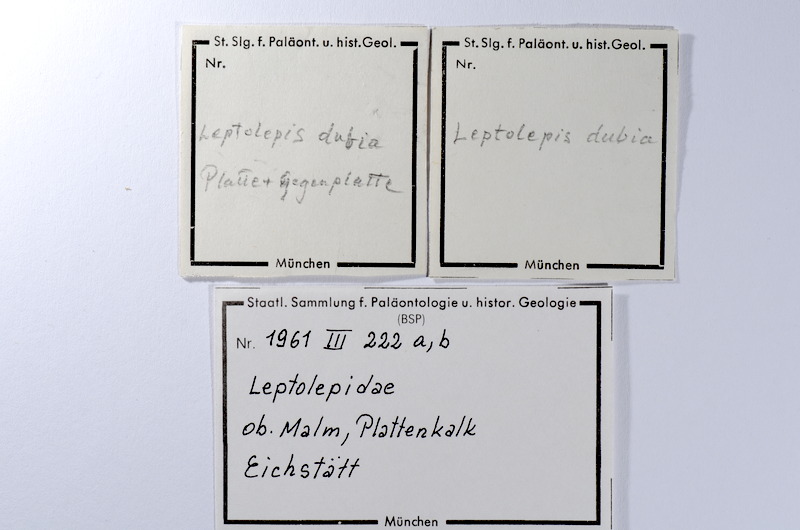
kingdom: Animalia
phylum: Chordata
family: Ascalaboidae
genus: Tharsis
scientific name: Tharsis dubius
